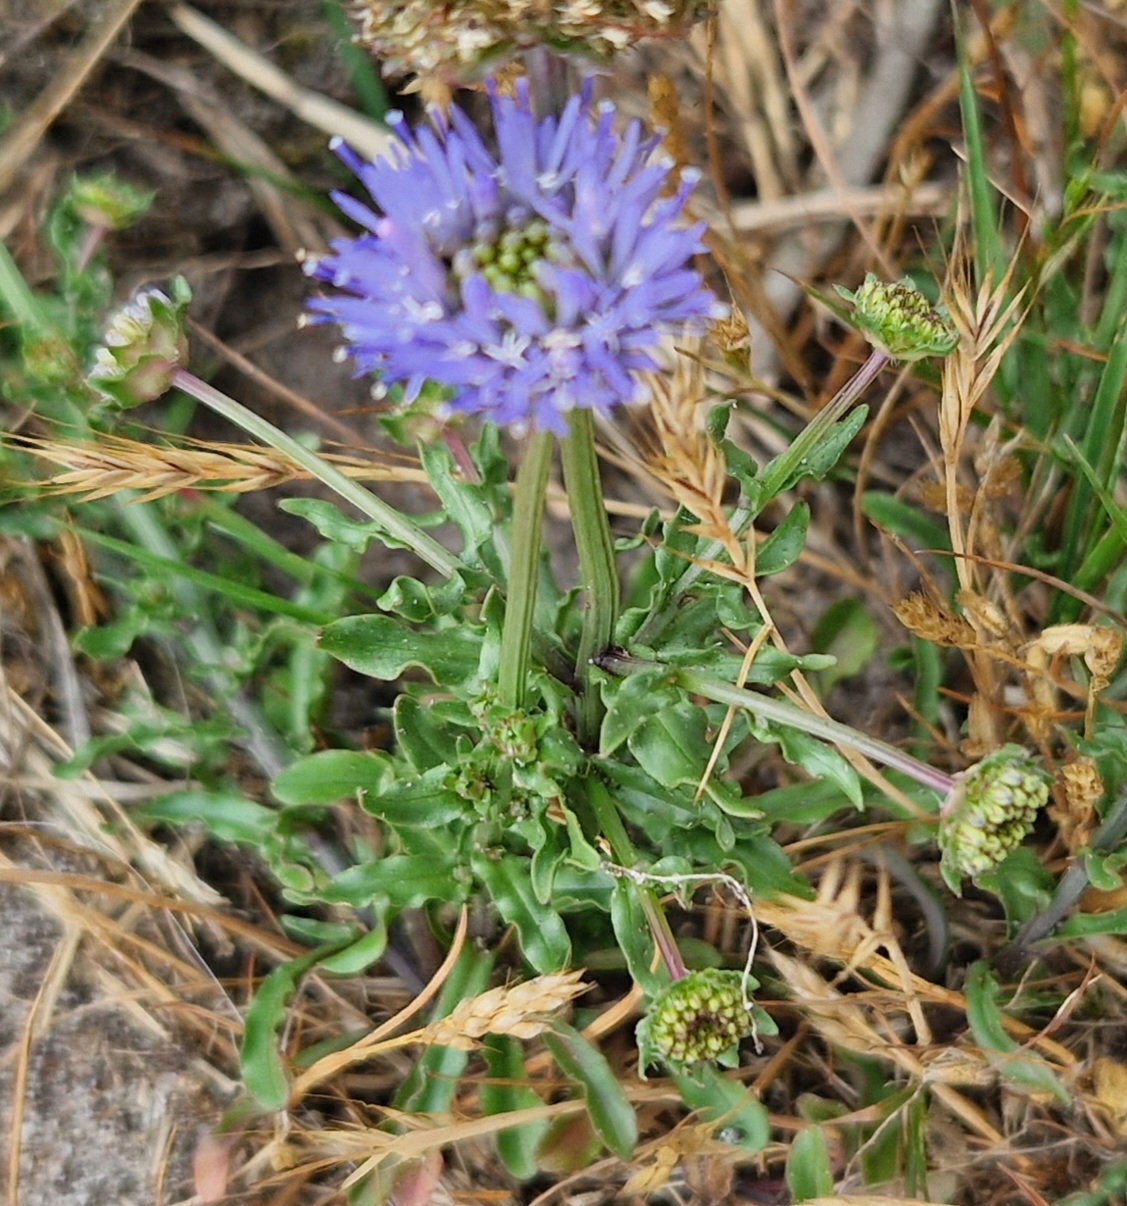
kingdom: Plantae
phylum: Tracheophyta
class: Magnoliopsida
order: Asterales
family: Campanulaceae
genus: Jasione
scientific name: Jasione montana
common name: Blåmunke
